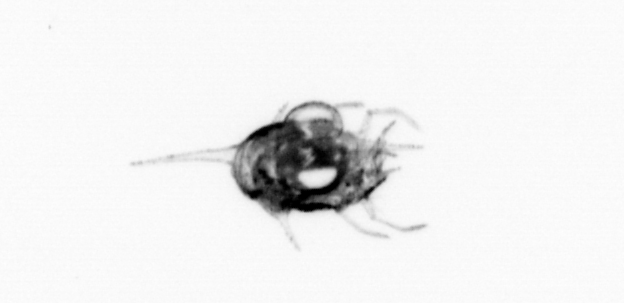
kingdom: Animalia
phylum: Arthropoda
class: Malacostraca
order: Decapoda
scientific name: Decapoda
